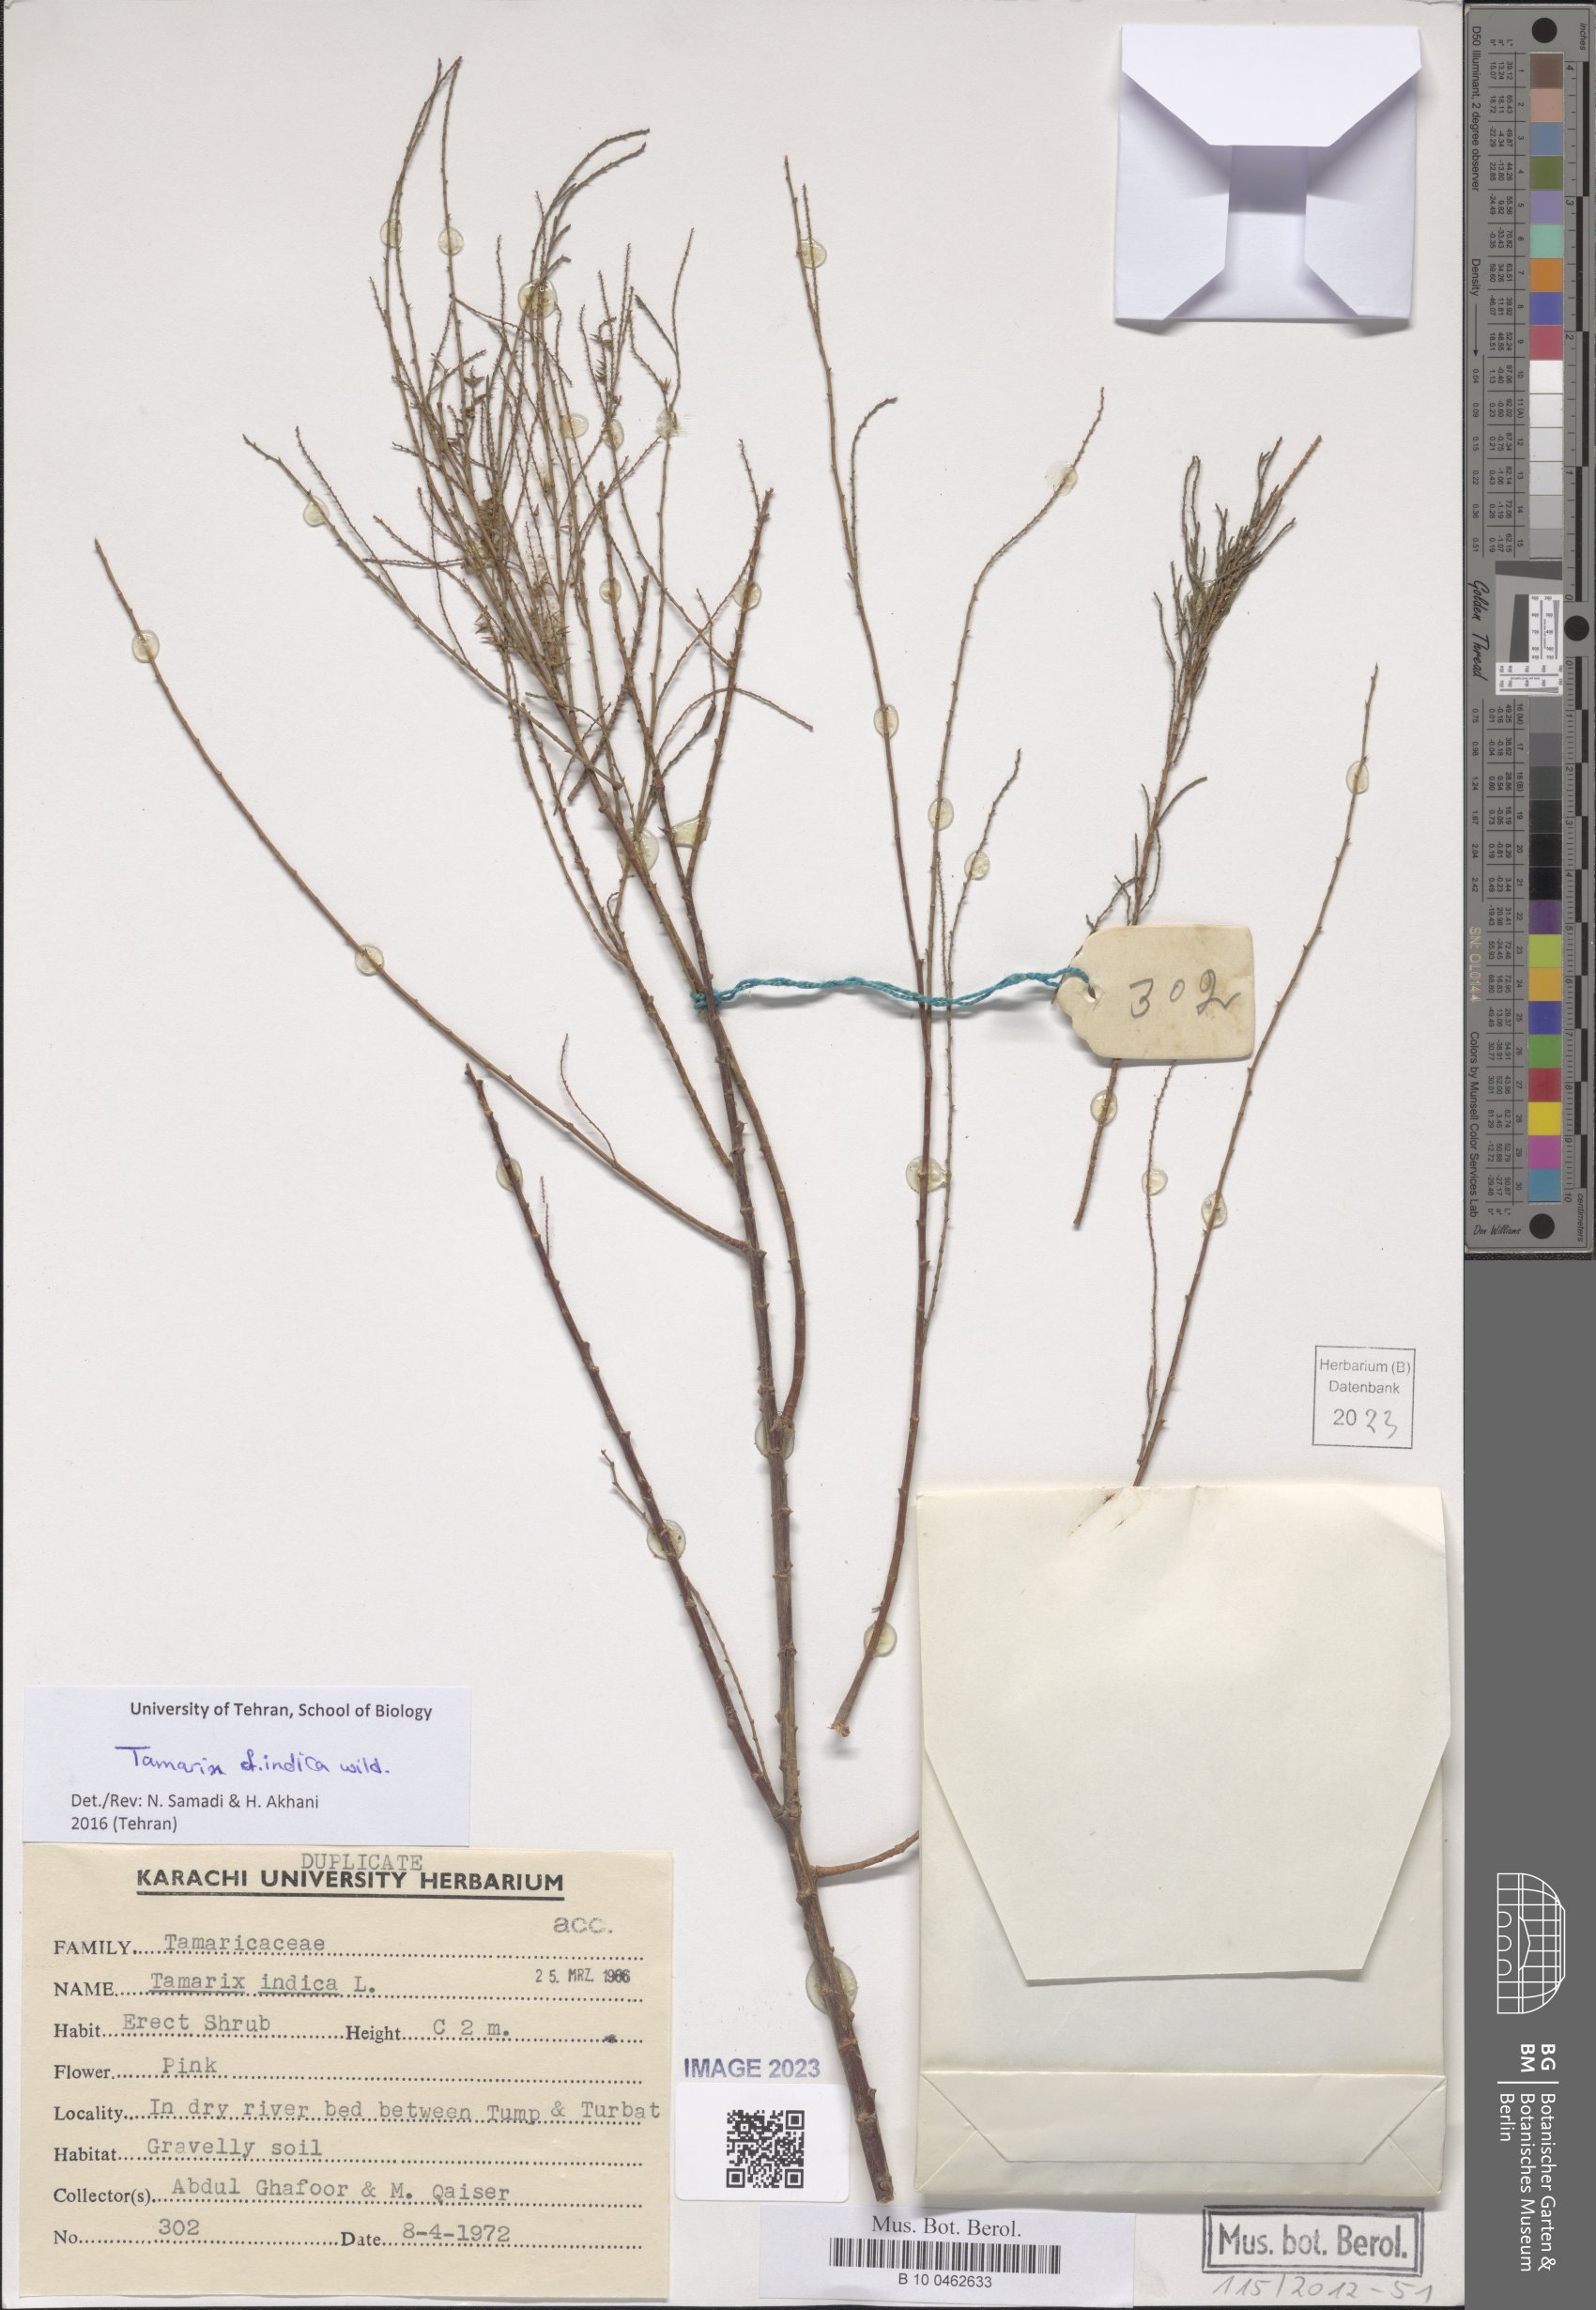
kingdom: Plantae
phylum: Tracheophyta
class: Magnoliopsida
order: Caryophyllales
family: Tamaricaceae
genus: Tamarix
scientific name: Tamarix indica
